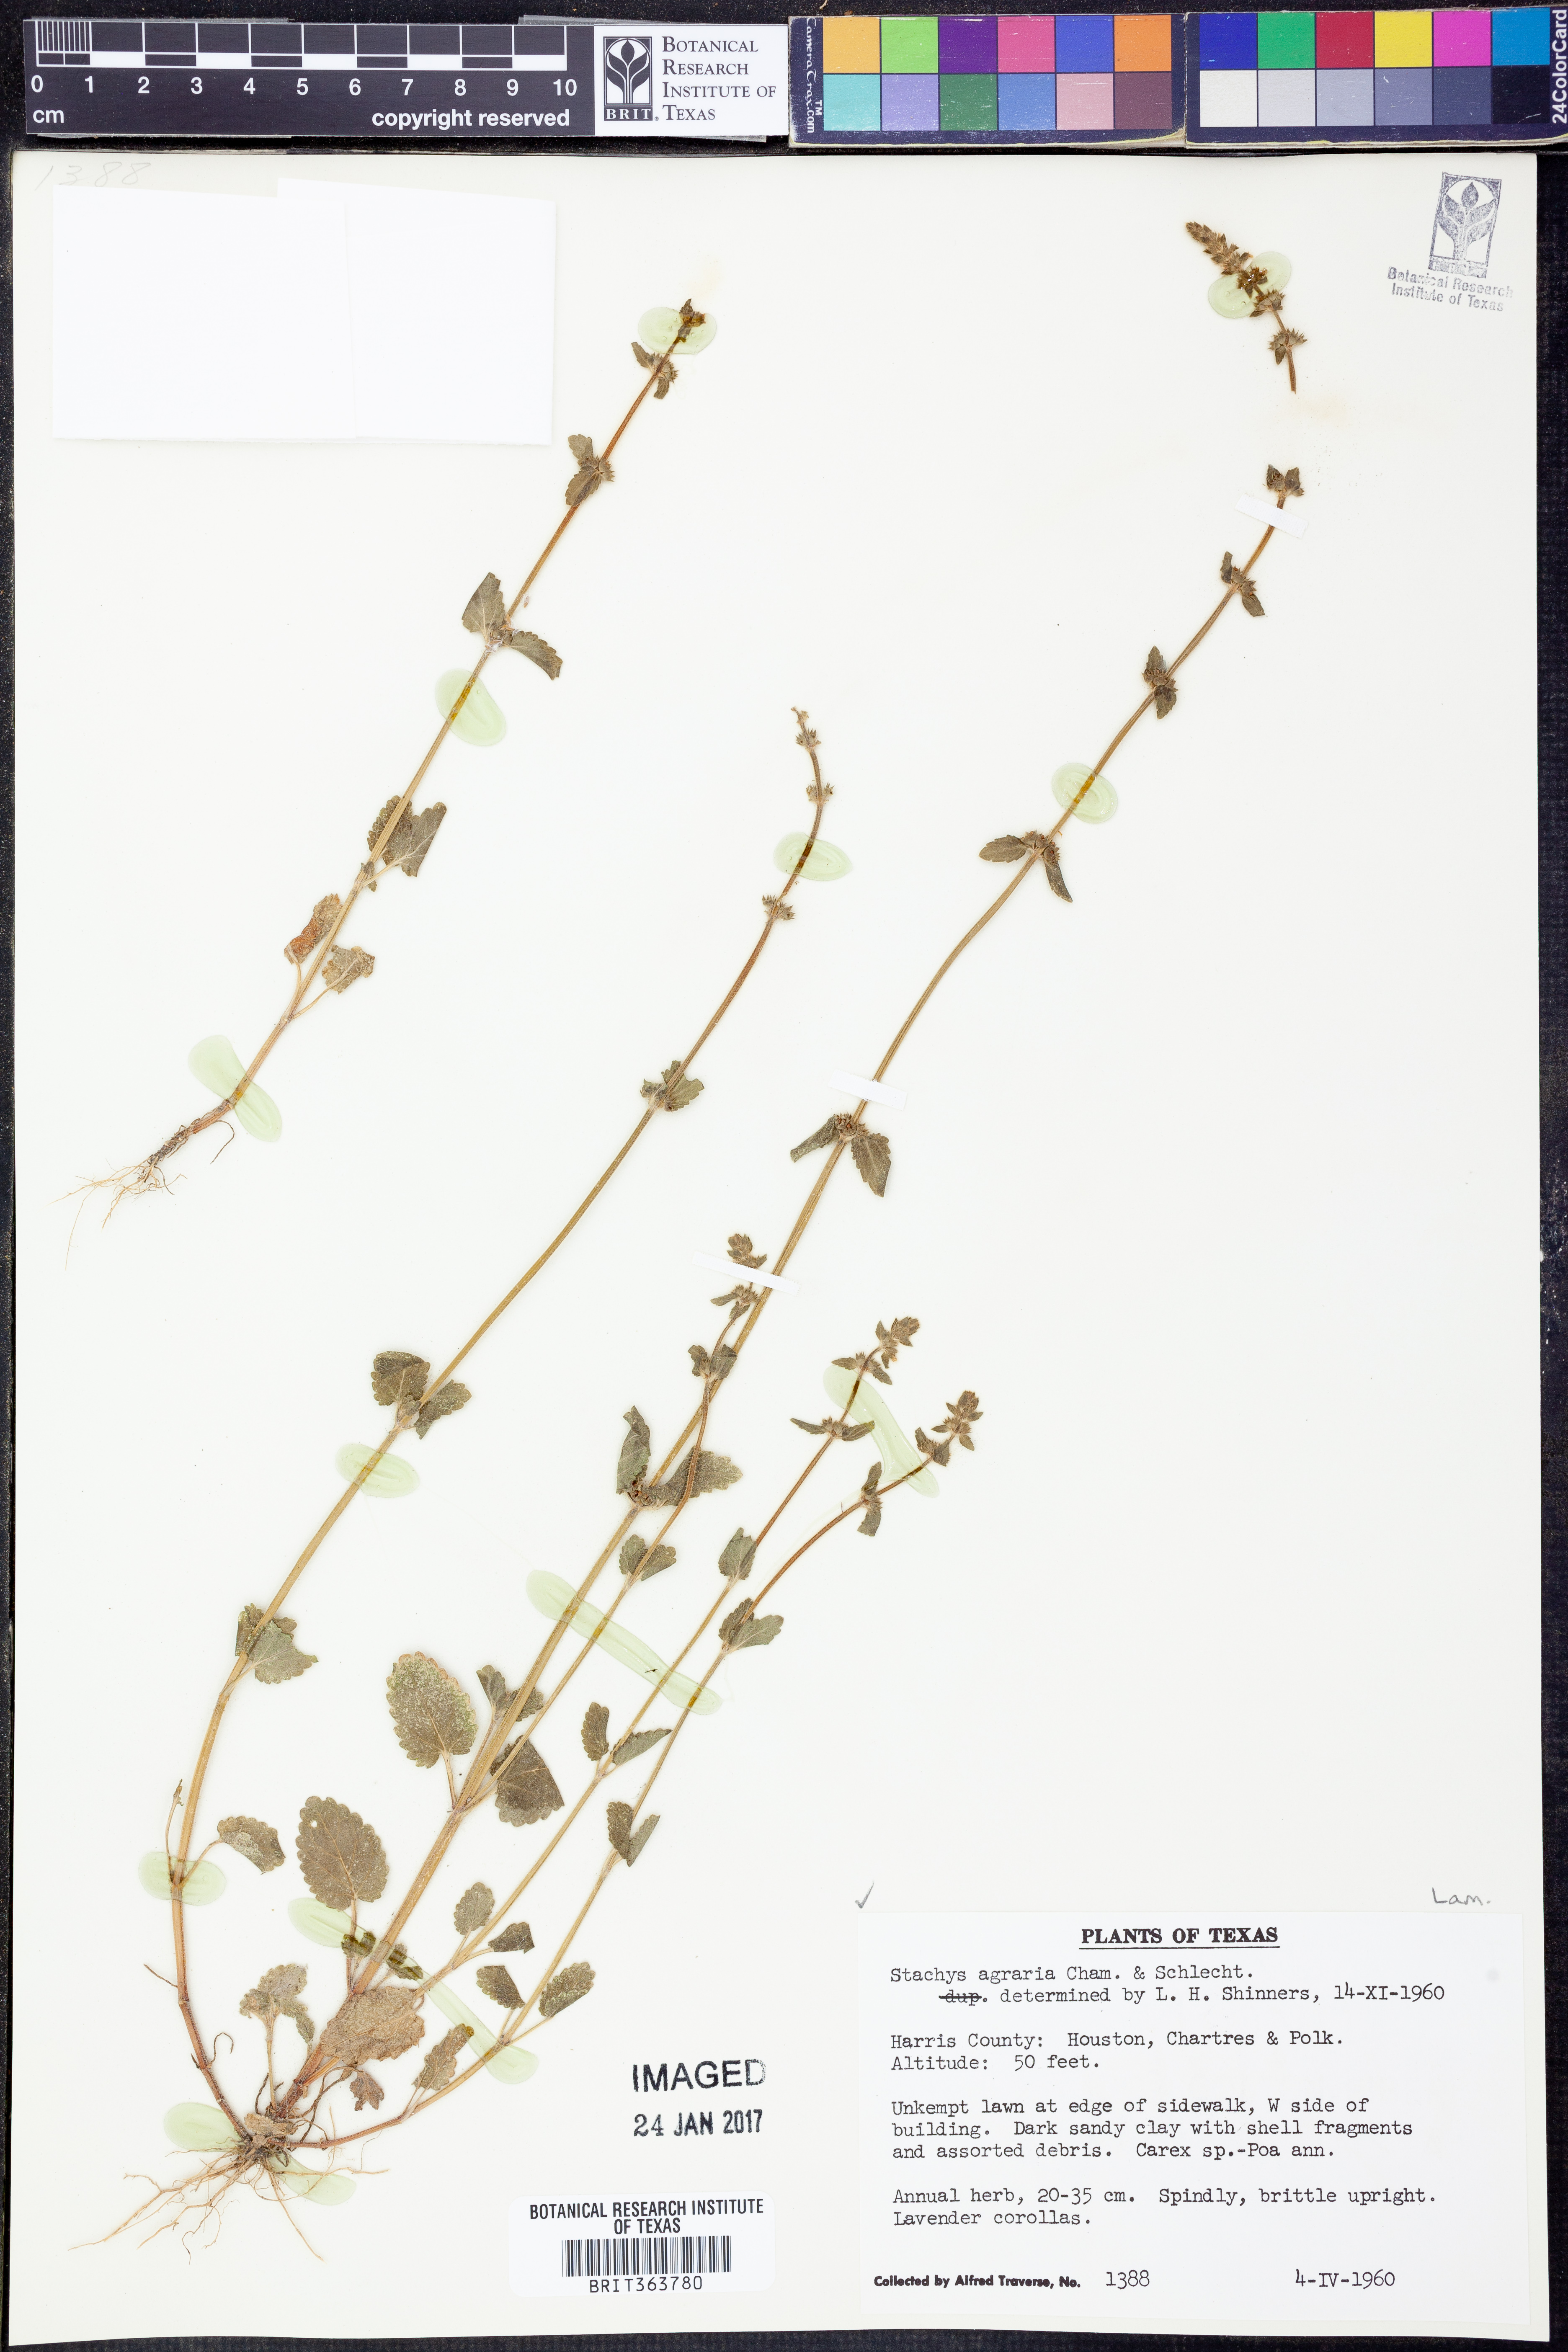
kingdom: Plantae
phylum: Tracheophyta
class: Magnoliopsida
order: Lamiales
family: Lamiaceae
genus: Stachys
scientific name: Stachys agraria
